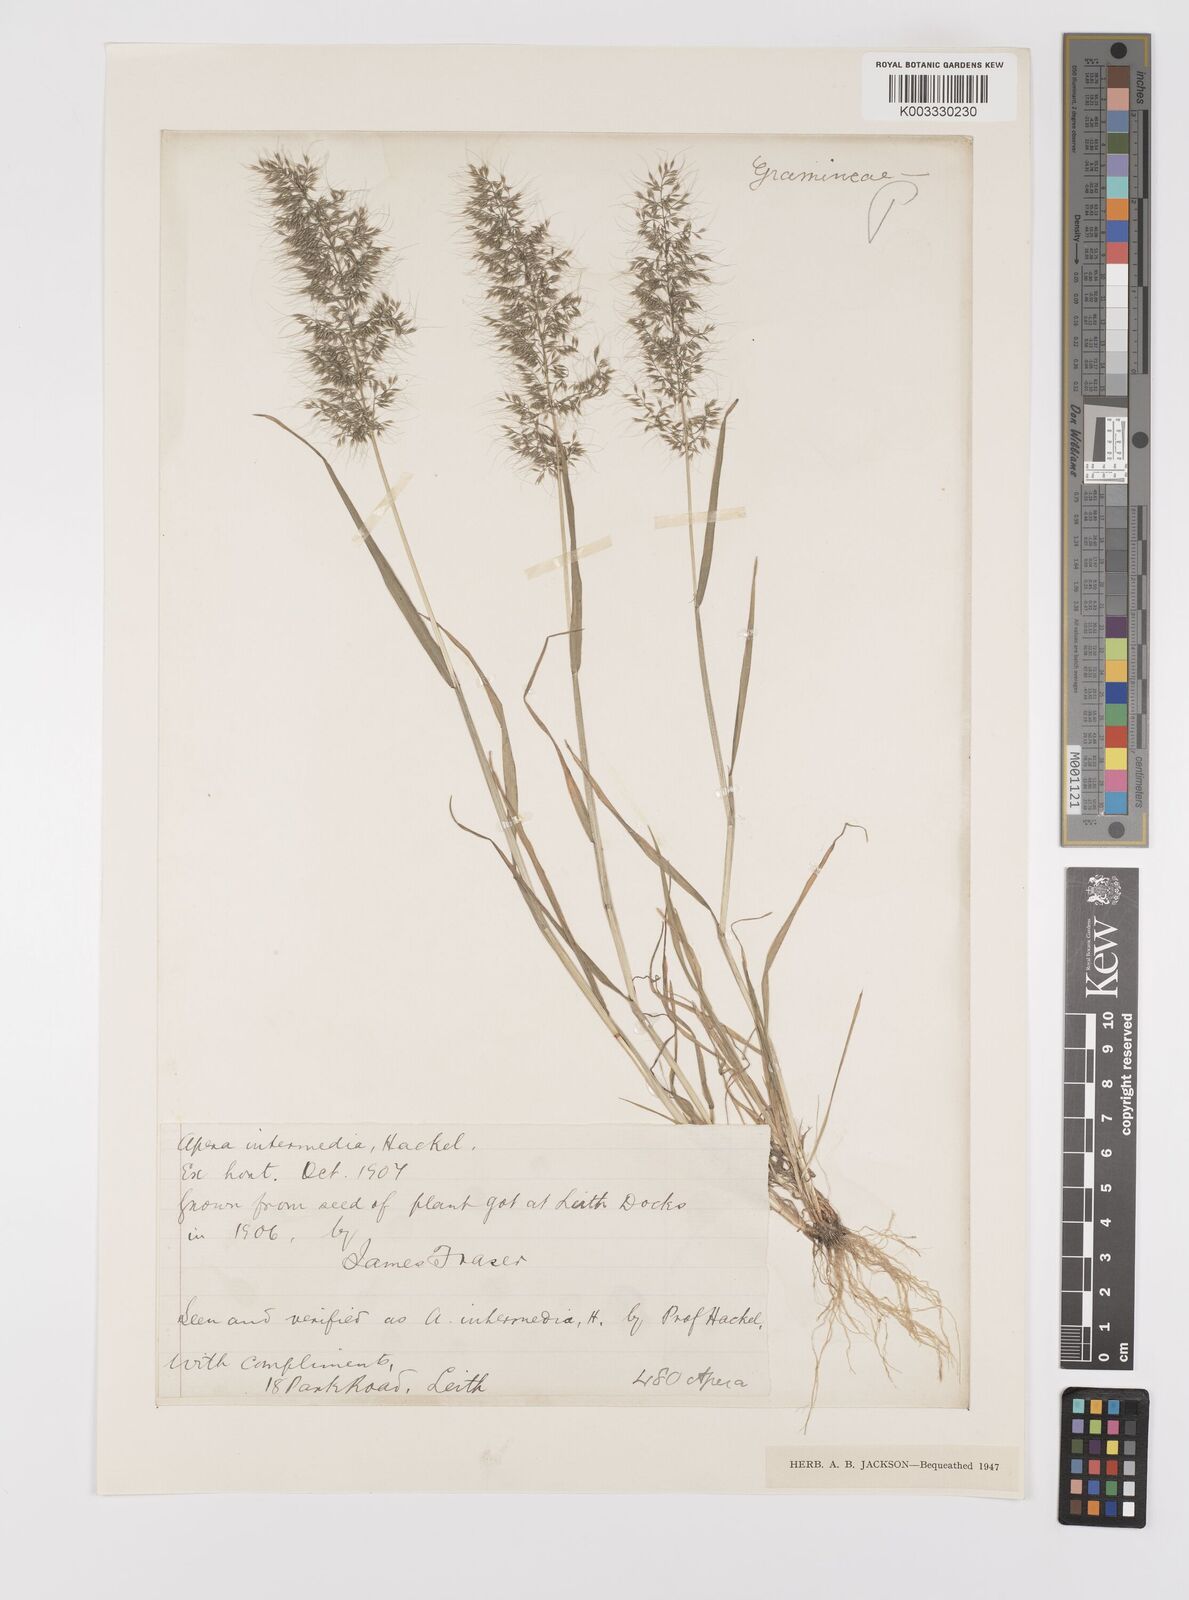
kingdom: Plantae
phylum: Tracheophyta
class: Liliopsida
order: Poales
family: Poaceae
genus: Apera
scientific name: Apera intermedia
